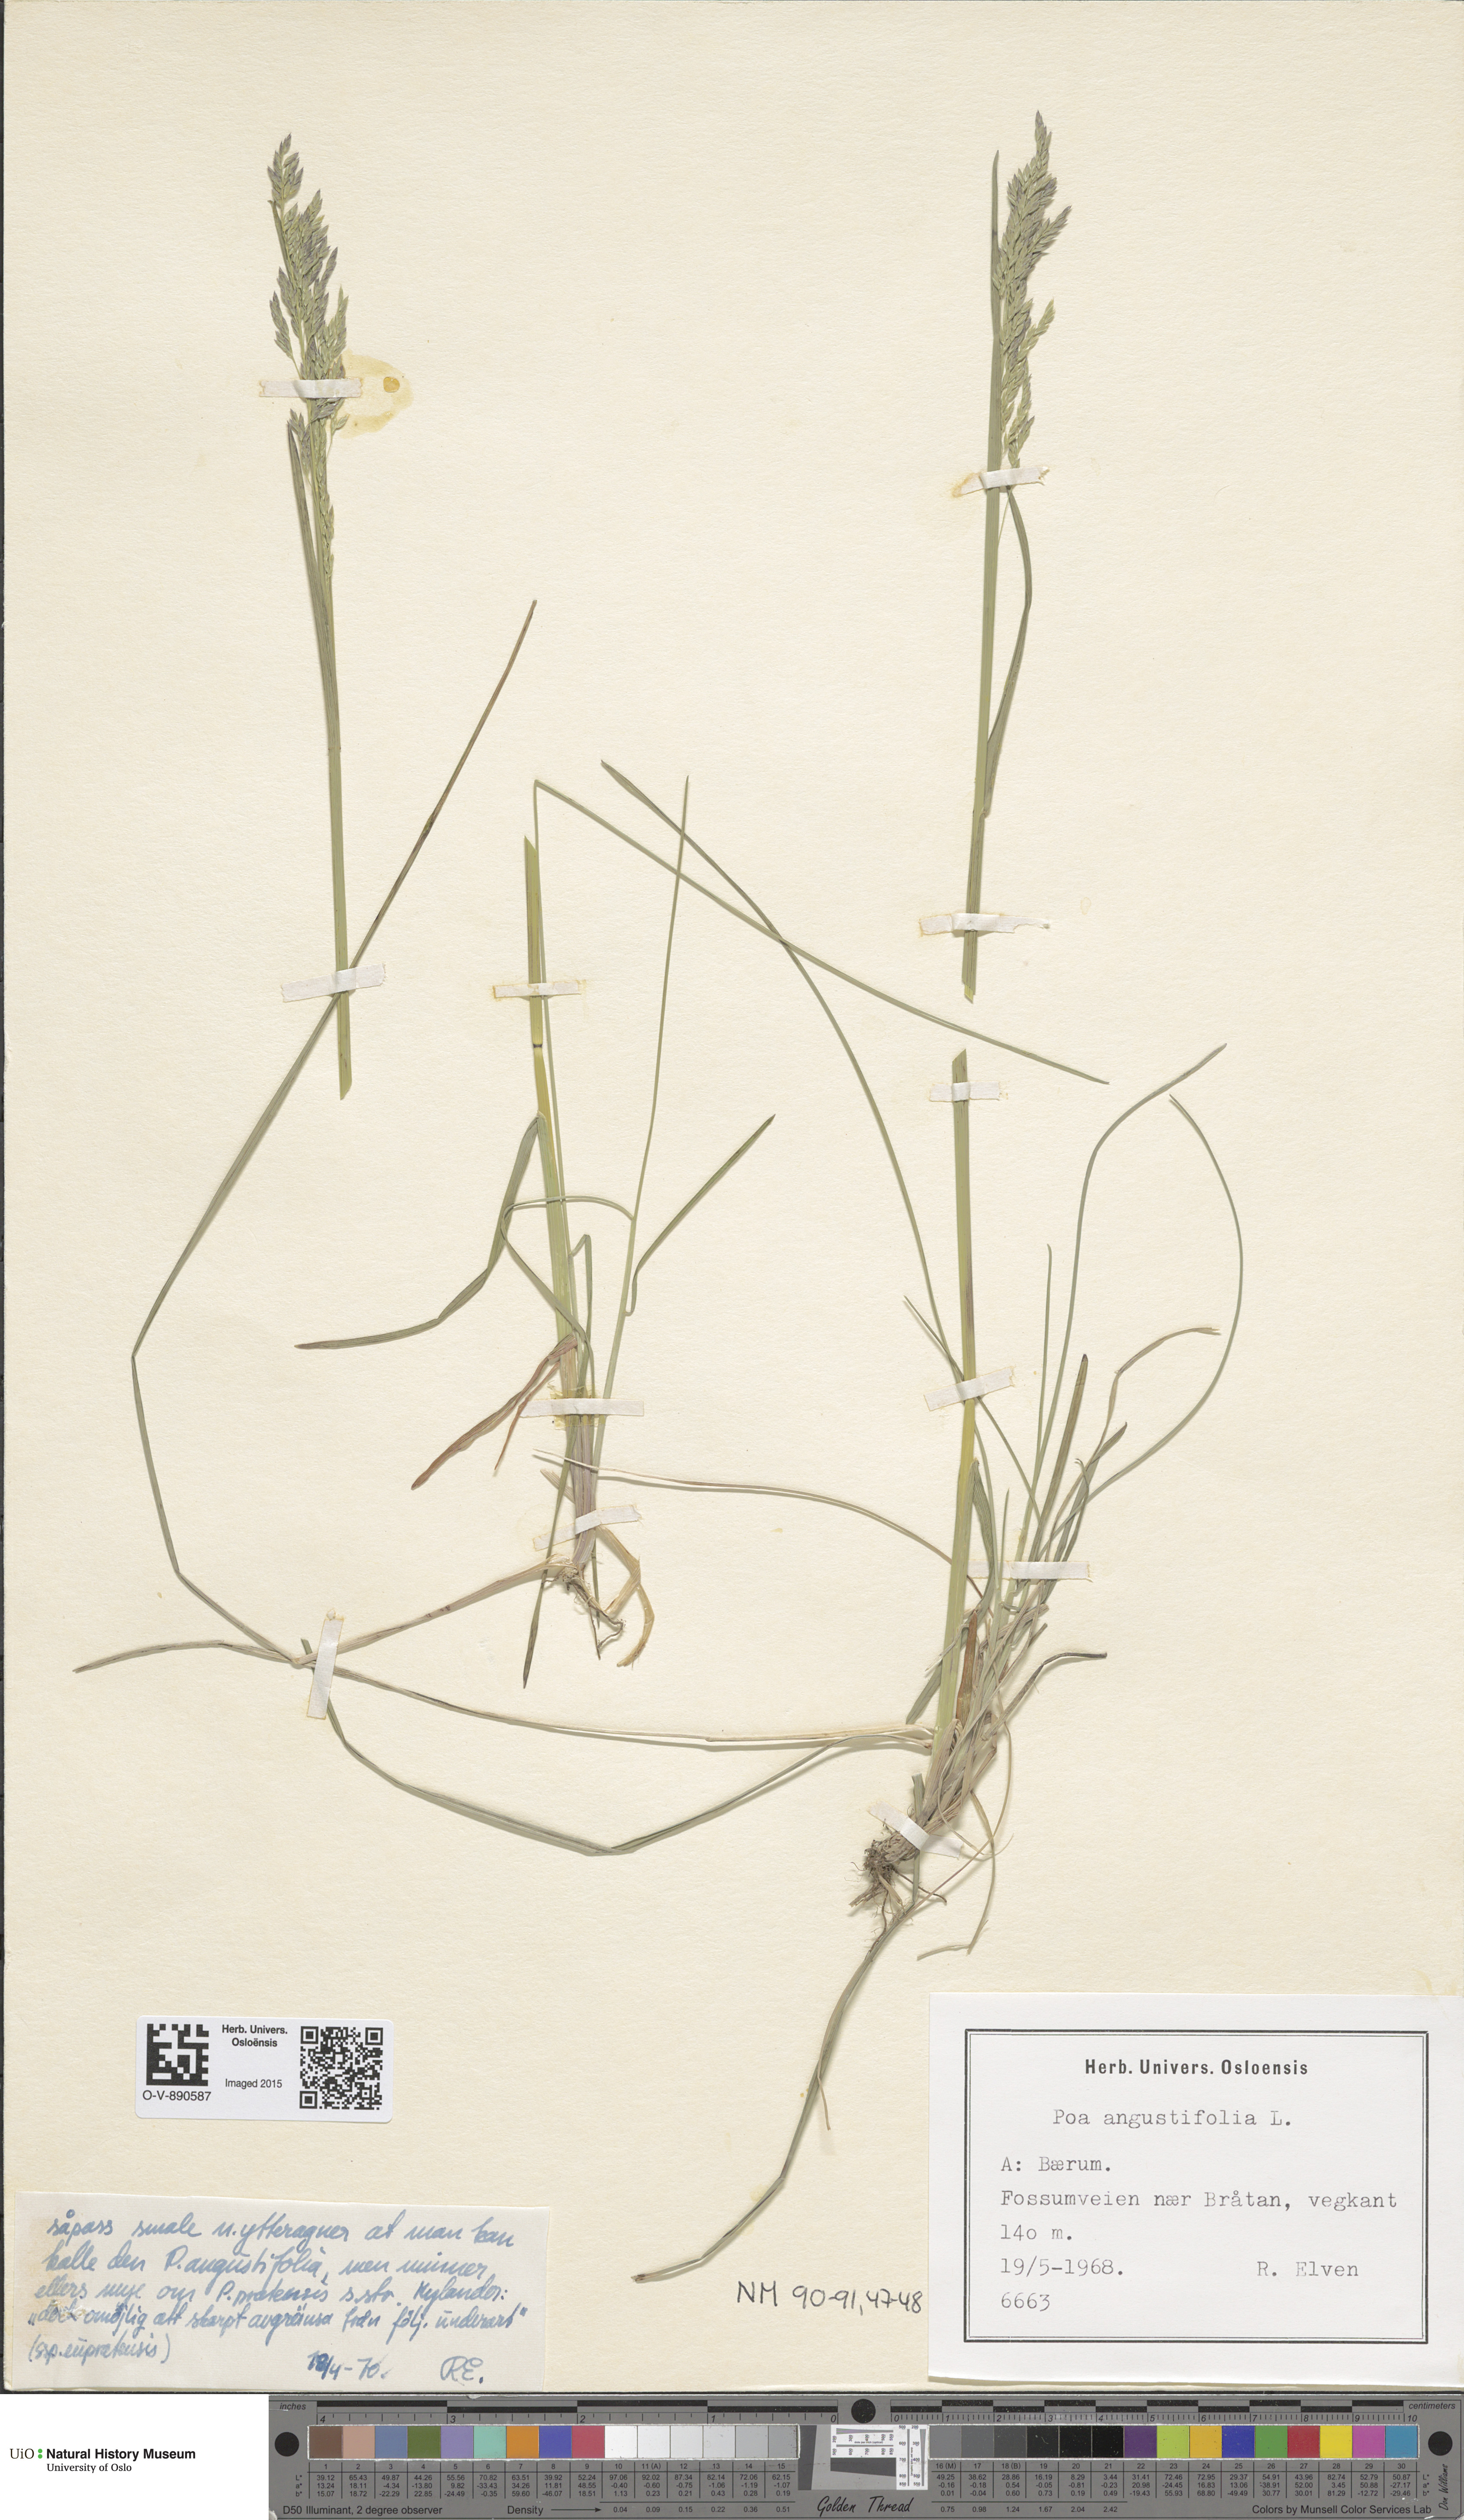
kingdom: Plantae
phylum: Tracheophyta
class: Liliopsida
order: Poales
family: Poaceae
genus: Poa
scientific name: Poa angustifolia
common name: Narrow-leaved meadow-grass
